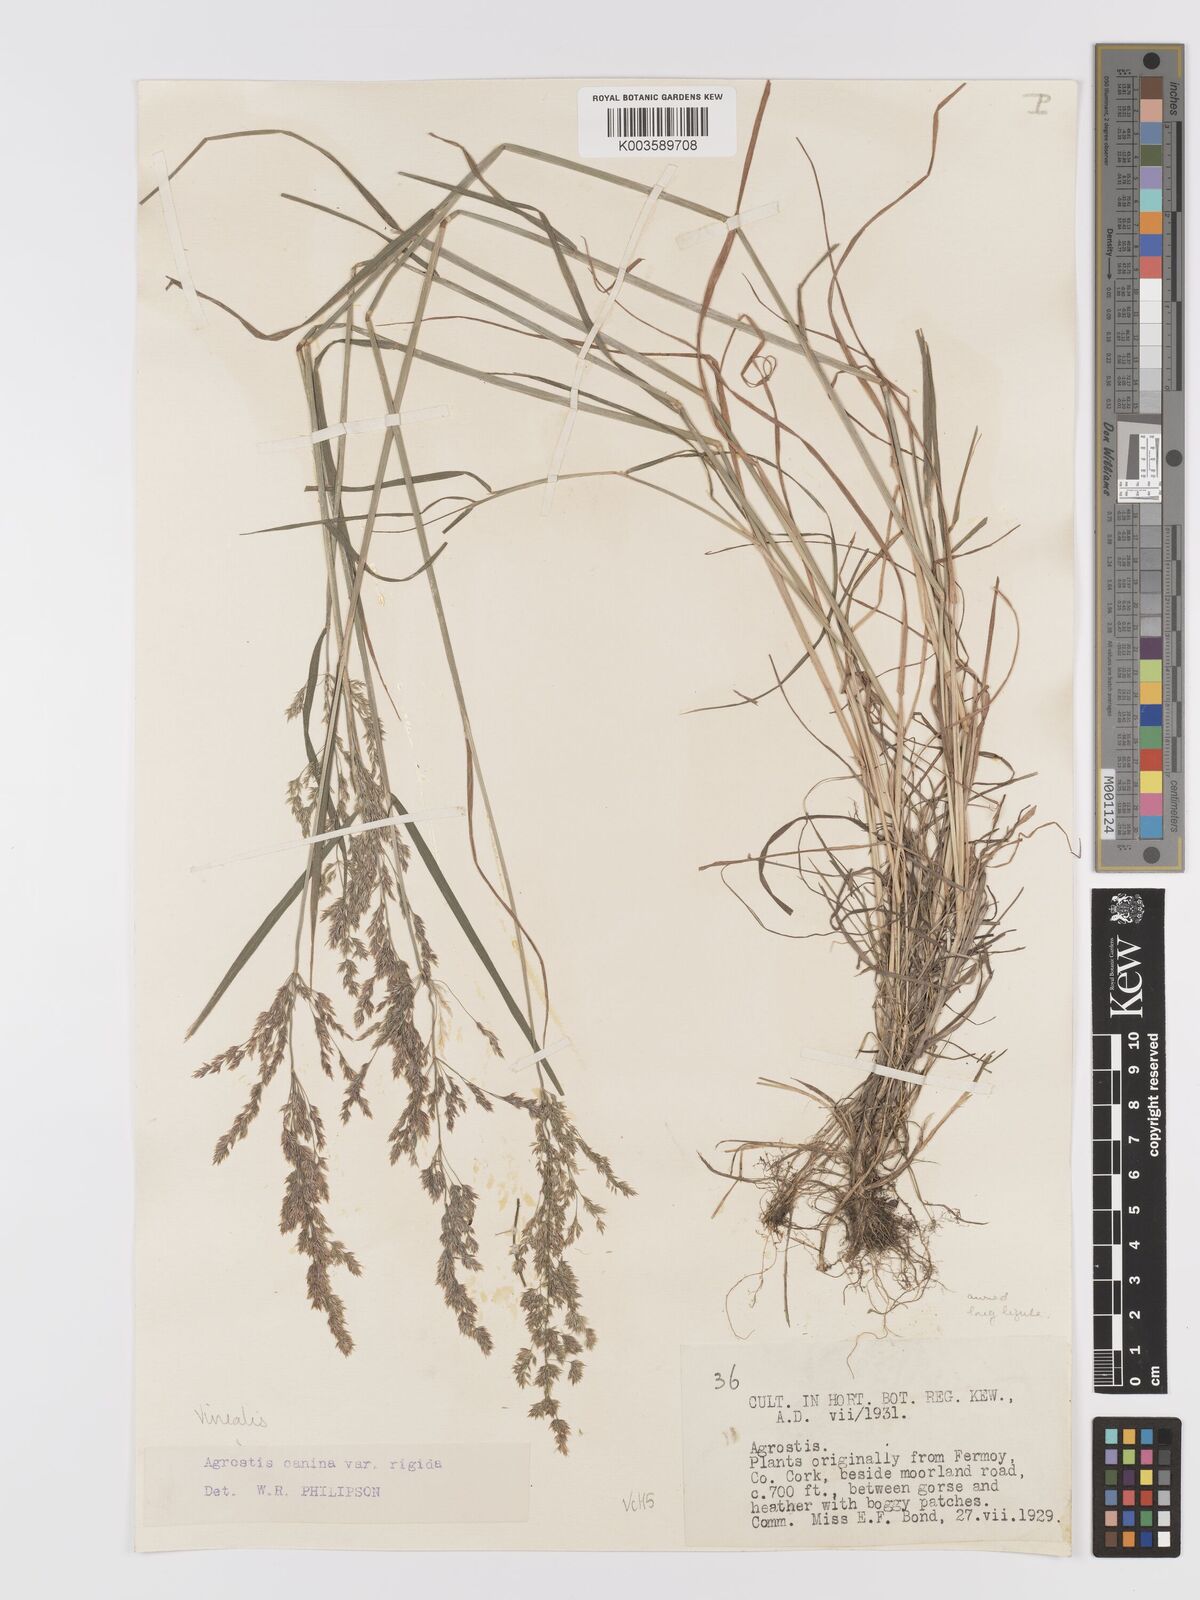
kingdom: Plantae
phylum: Tracheophyta
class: Liliopsida
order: Poales
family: Poaceae
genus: Agrostis
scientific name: Agrostis
